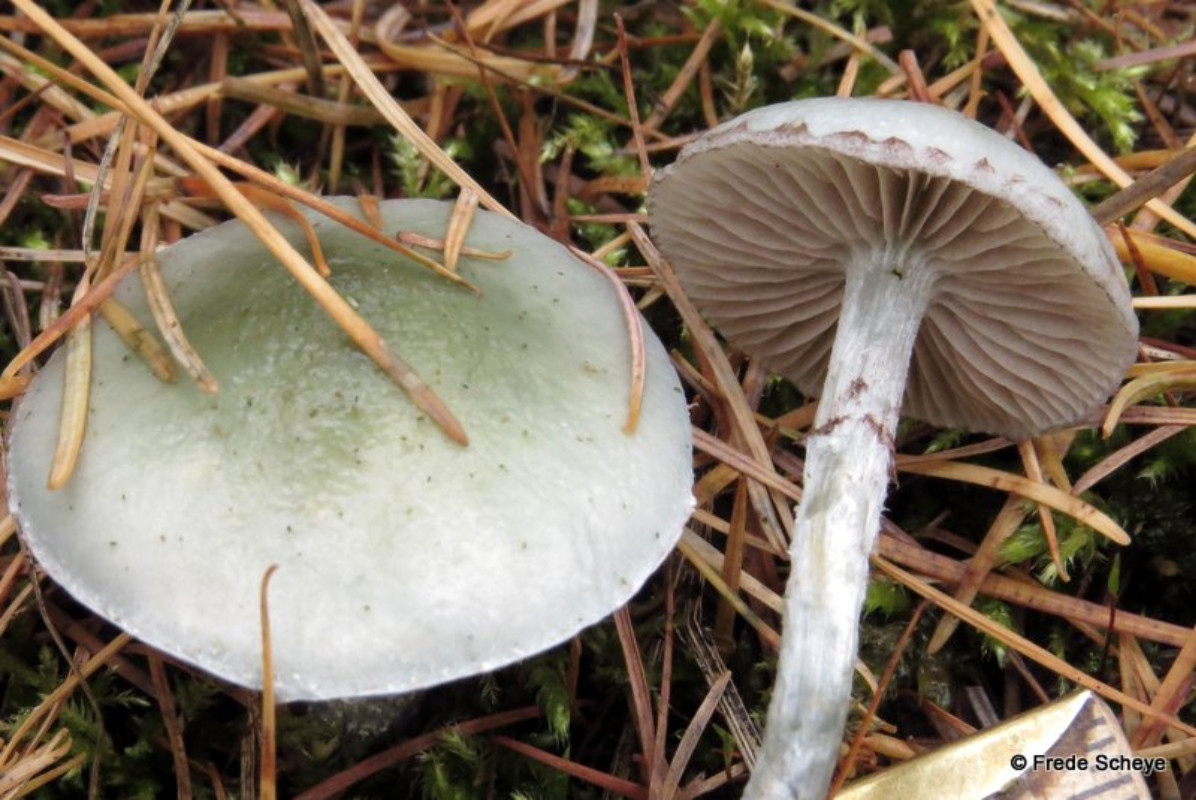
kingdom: Fungi
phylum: Basidiomycota
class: Agaricomycetes
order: Agaricales
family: Strophariaceae
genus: Stropharia
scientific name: Stropharia cyanea
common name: blågrøn bredblad
